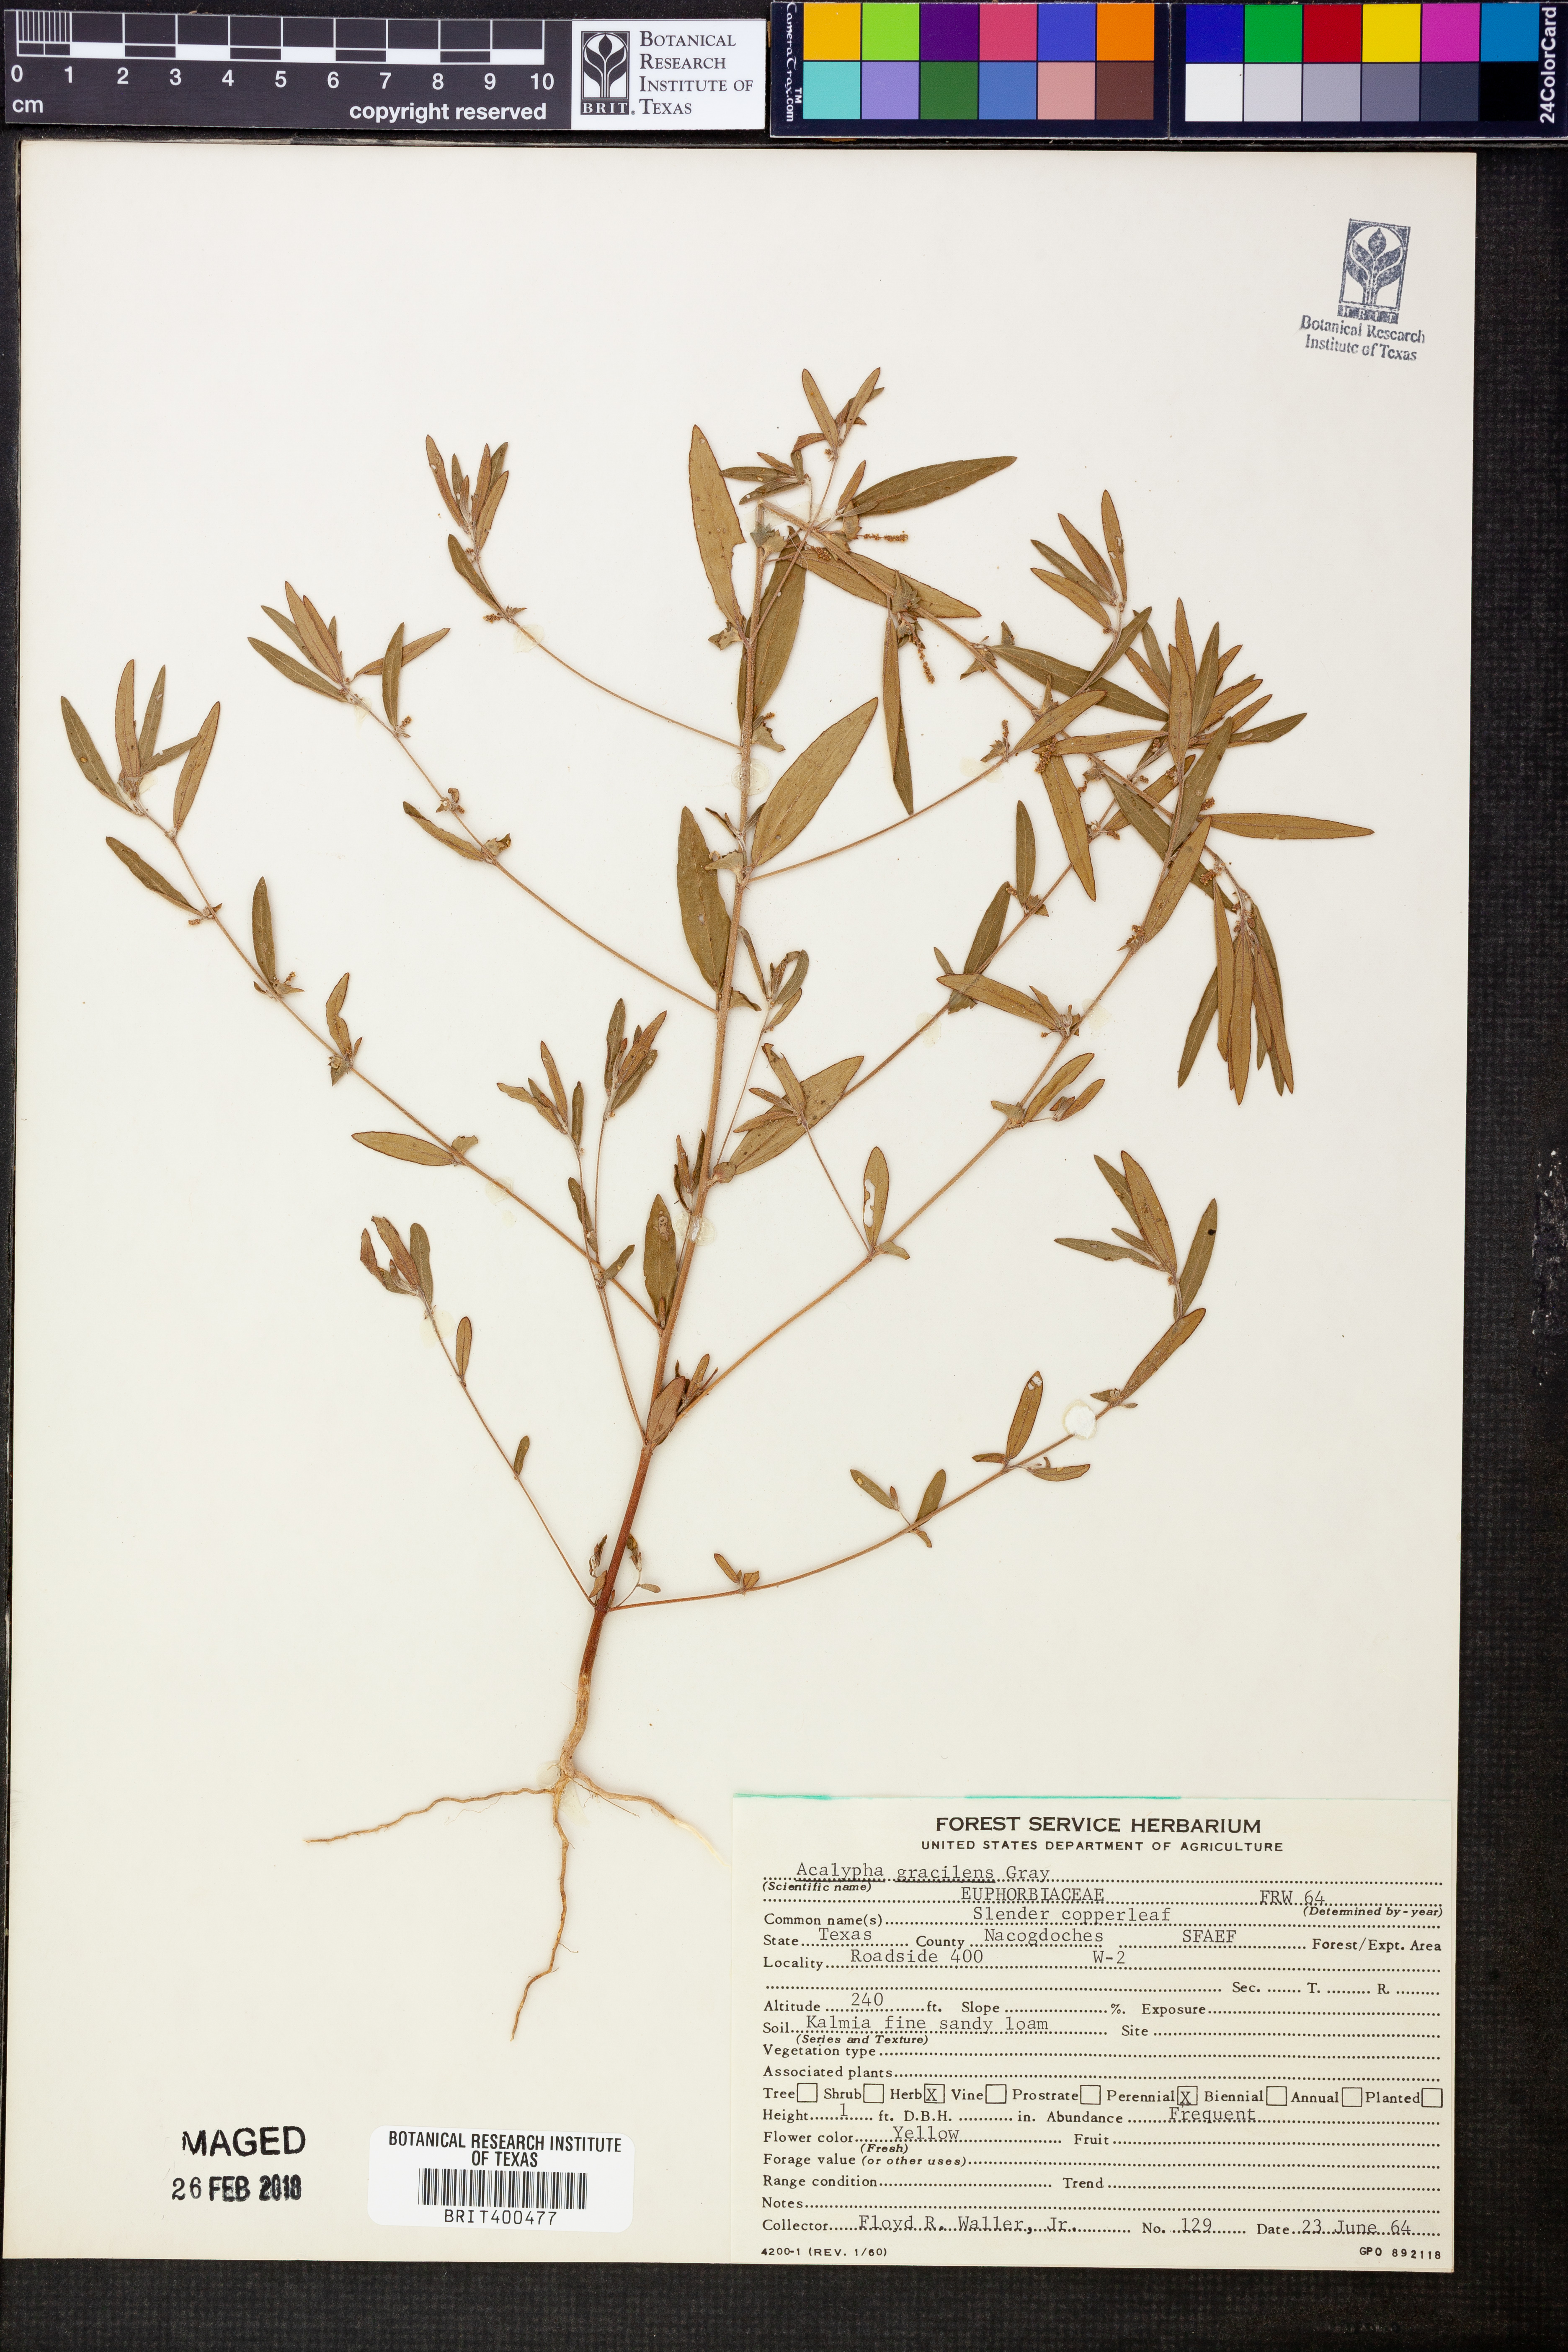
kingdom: Plantae
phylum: Tracheophyta
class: Magnoliopsida
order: Malpighiales
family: Euphorbiaceae
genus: Acalypha
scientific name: Acalypha gracilens
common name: Slender three-seeded mercury
